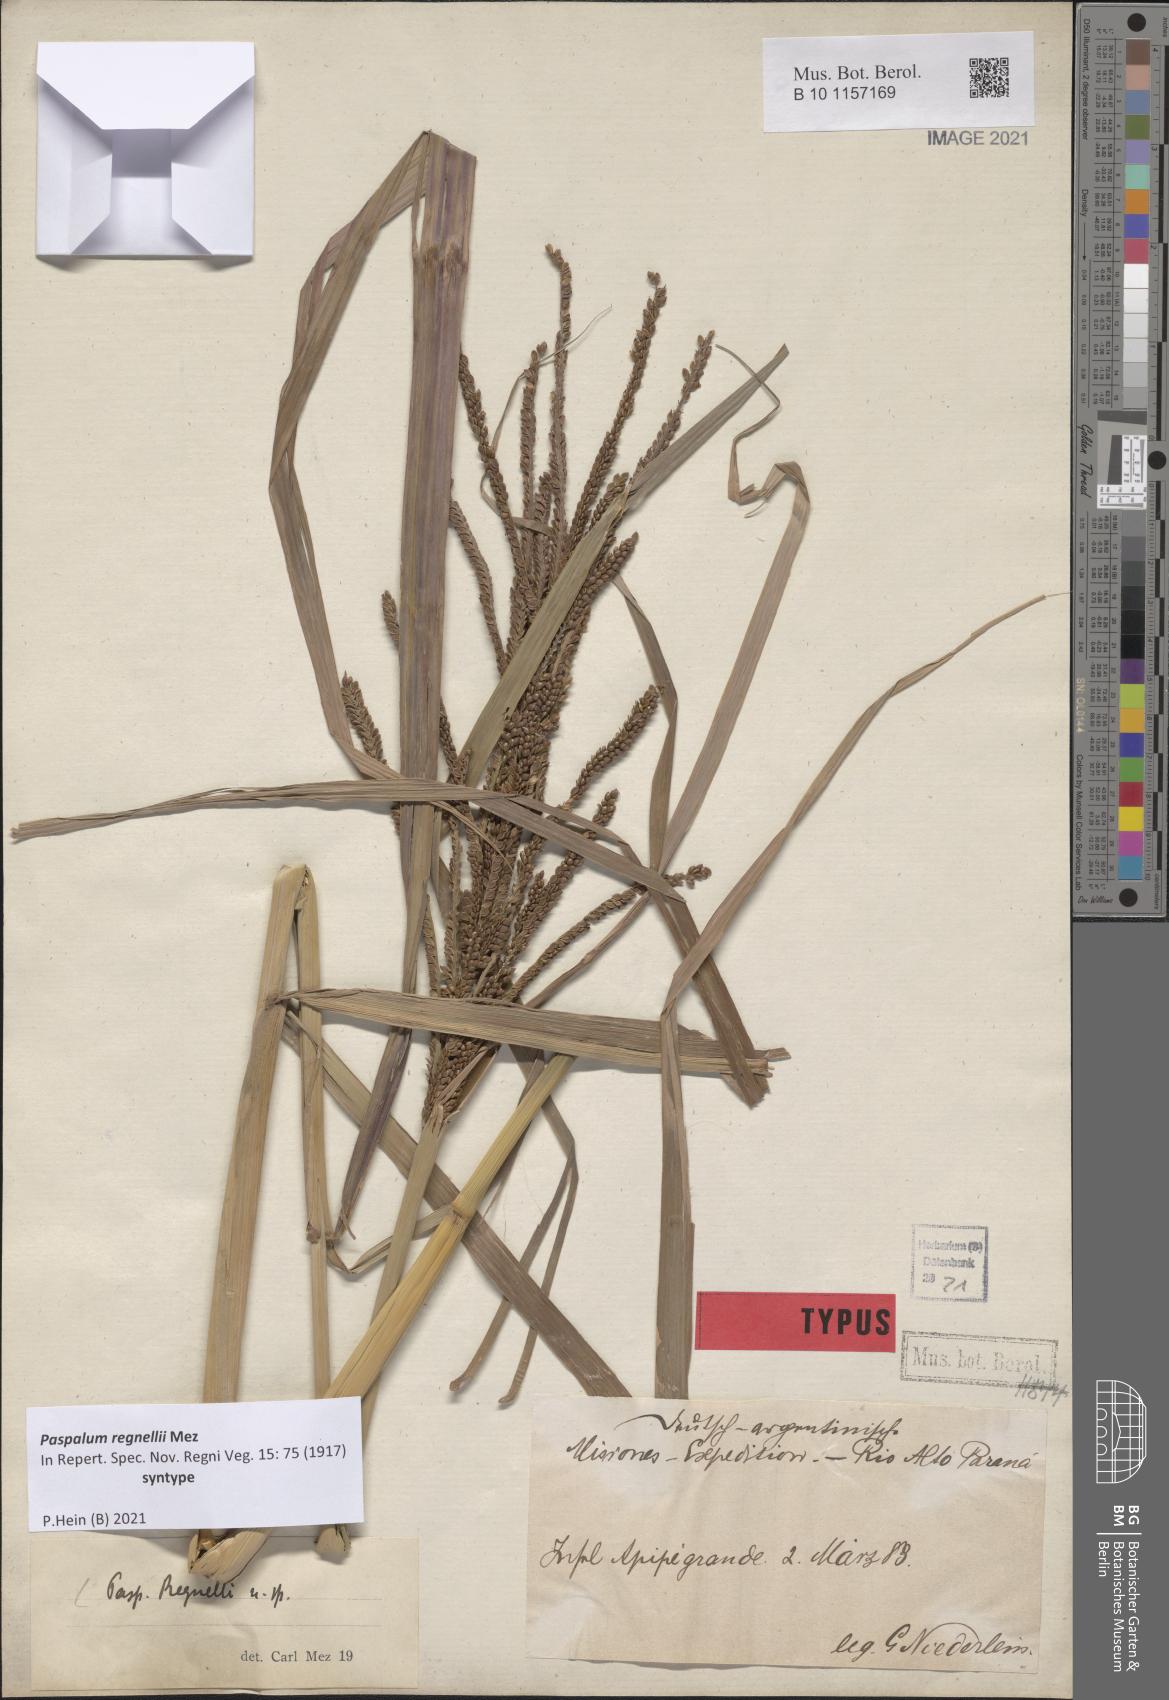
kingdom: Plantae
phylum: Tracheophyta
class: Liliopsida
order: Poales
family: Poaceae
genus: Paspalum
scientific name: Paspalum regnellii
